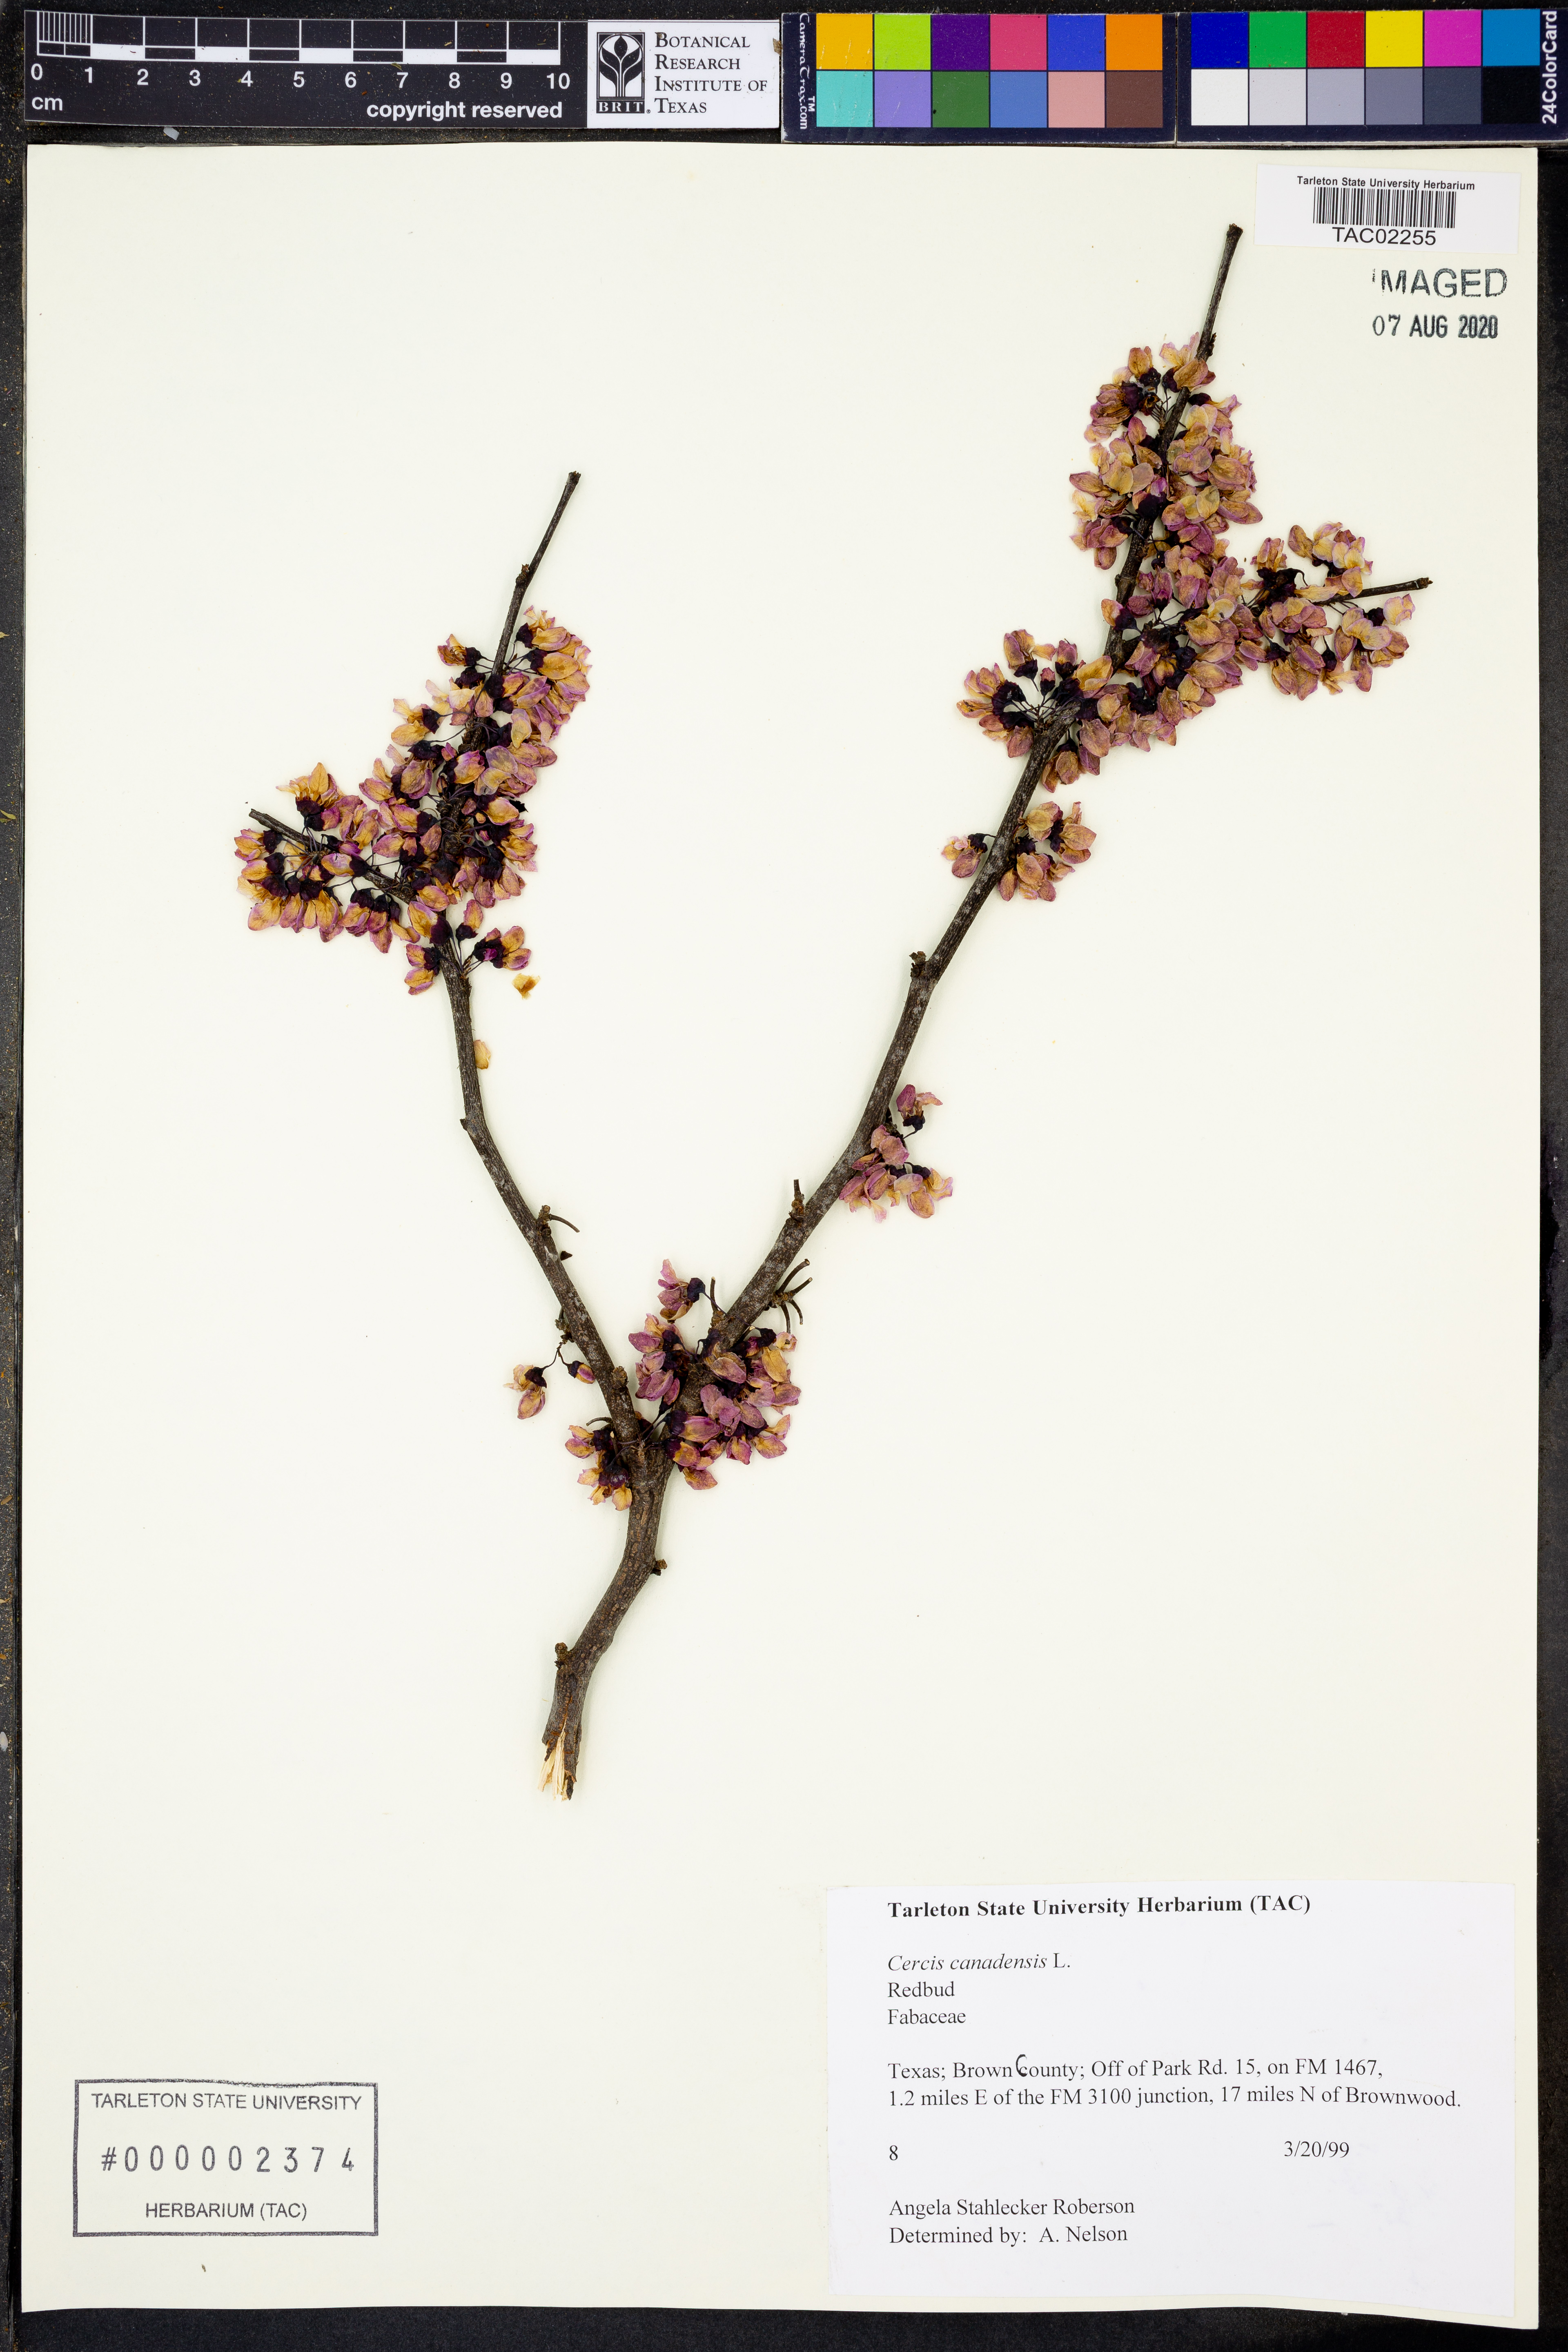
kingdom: Plantae
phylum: Tracheophyta
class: Magnoliopsida
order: Fabales
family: Fabaceae
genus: Cercis
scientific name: Cercis canadensis
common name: Eastern redbud
